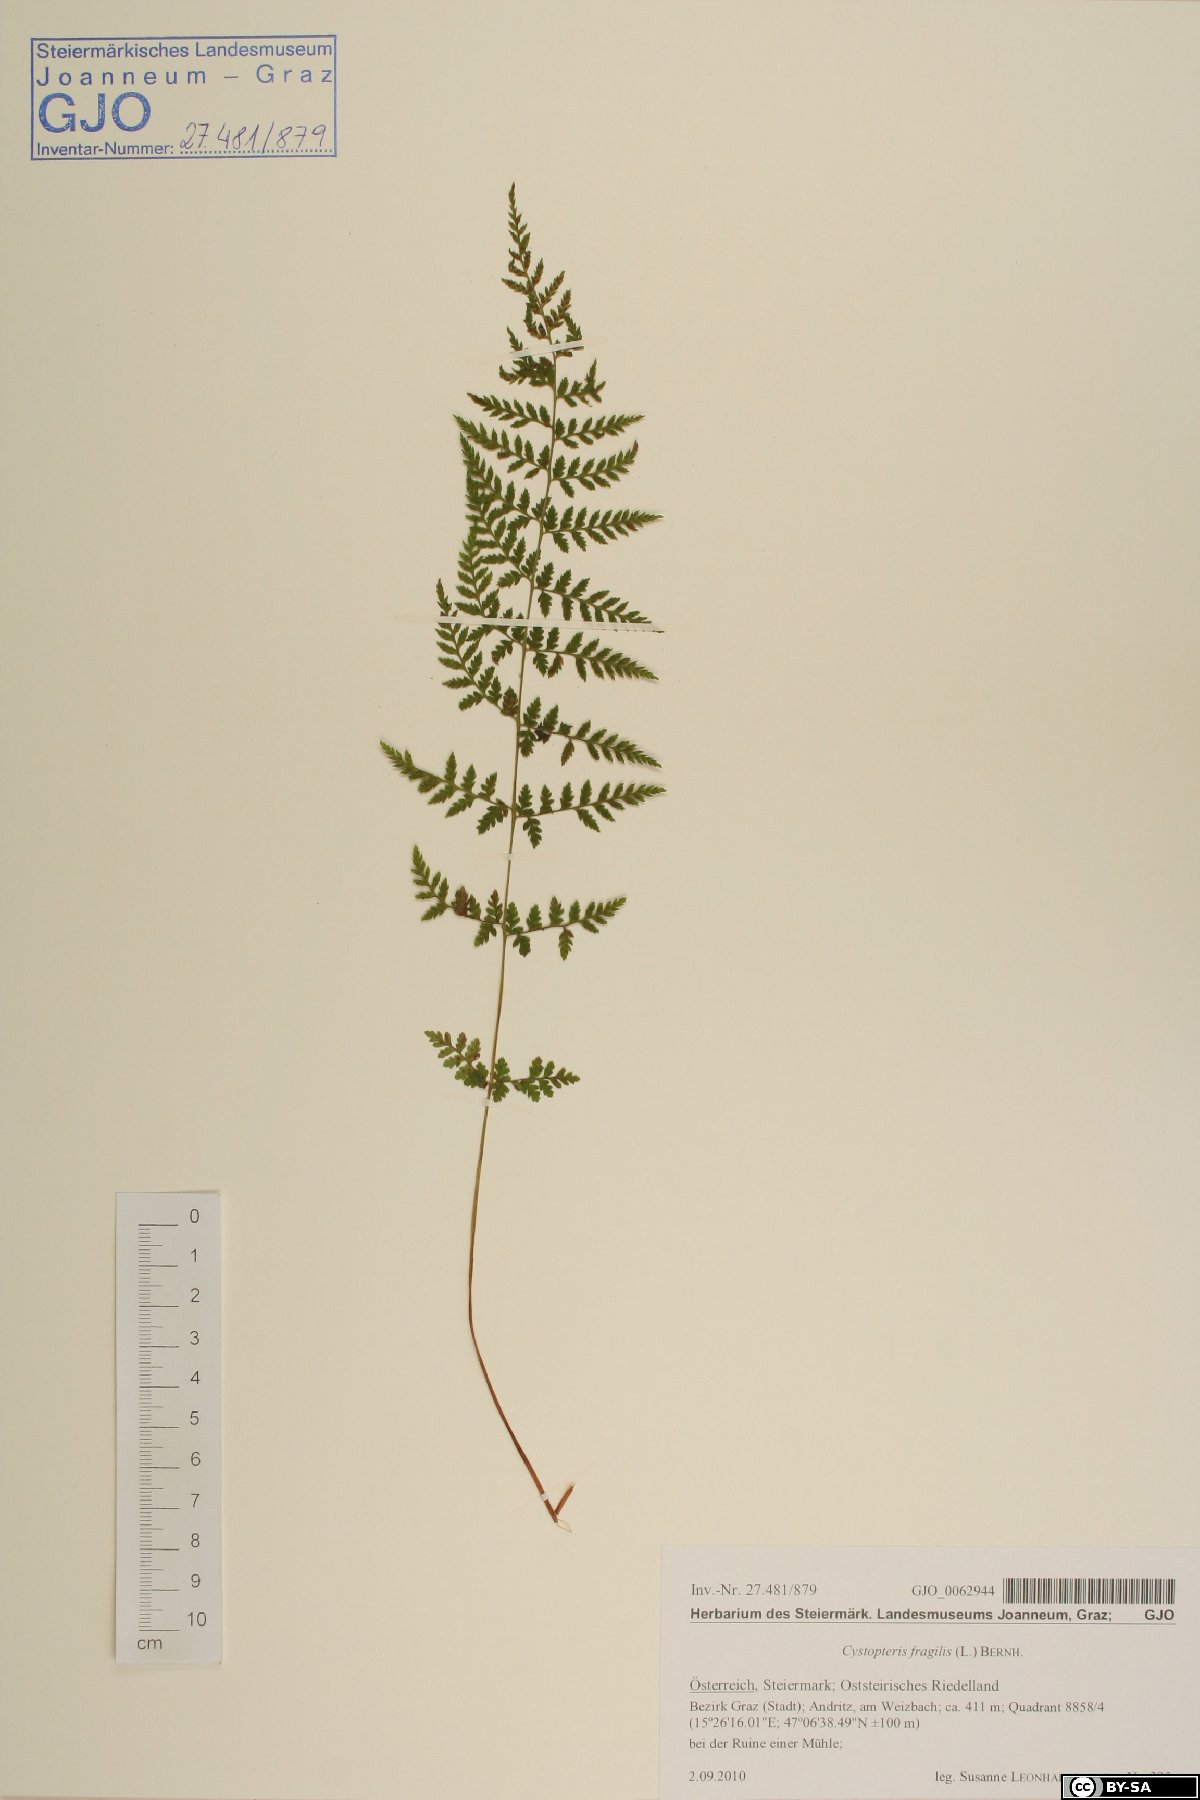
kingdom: Plantae
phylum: Tracheophyta
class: Polypodiopsida
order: Polypodiales
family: Cystopteridaceae
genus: Cystopteris
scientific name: Cystopteris fragilis
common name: Brittle bladder fern
